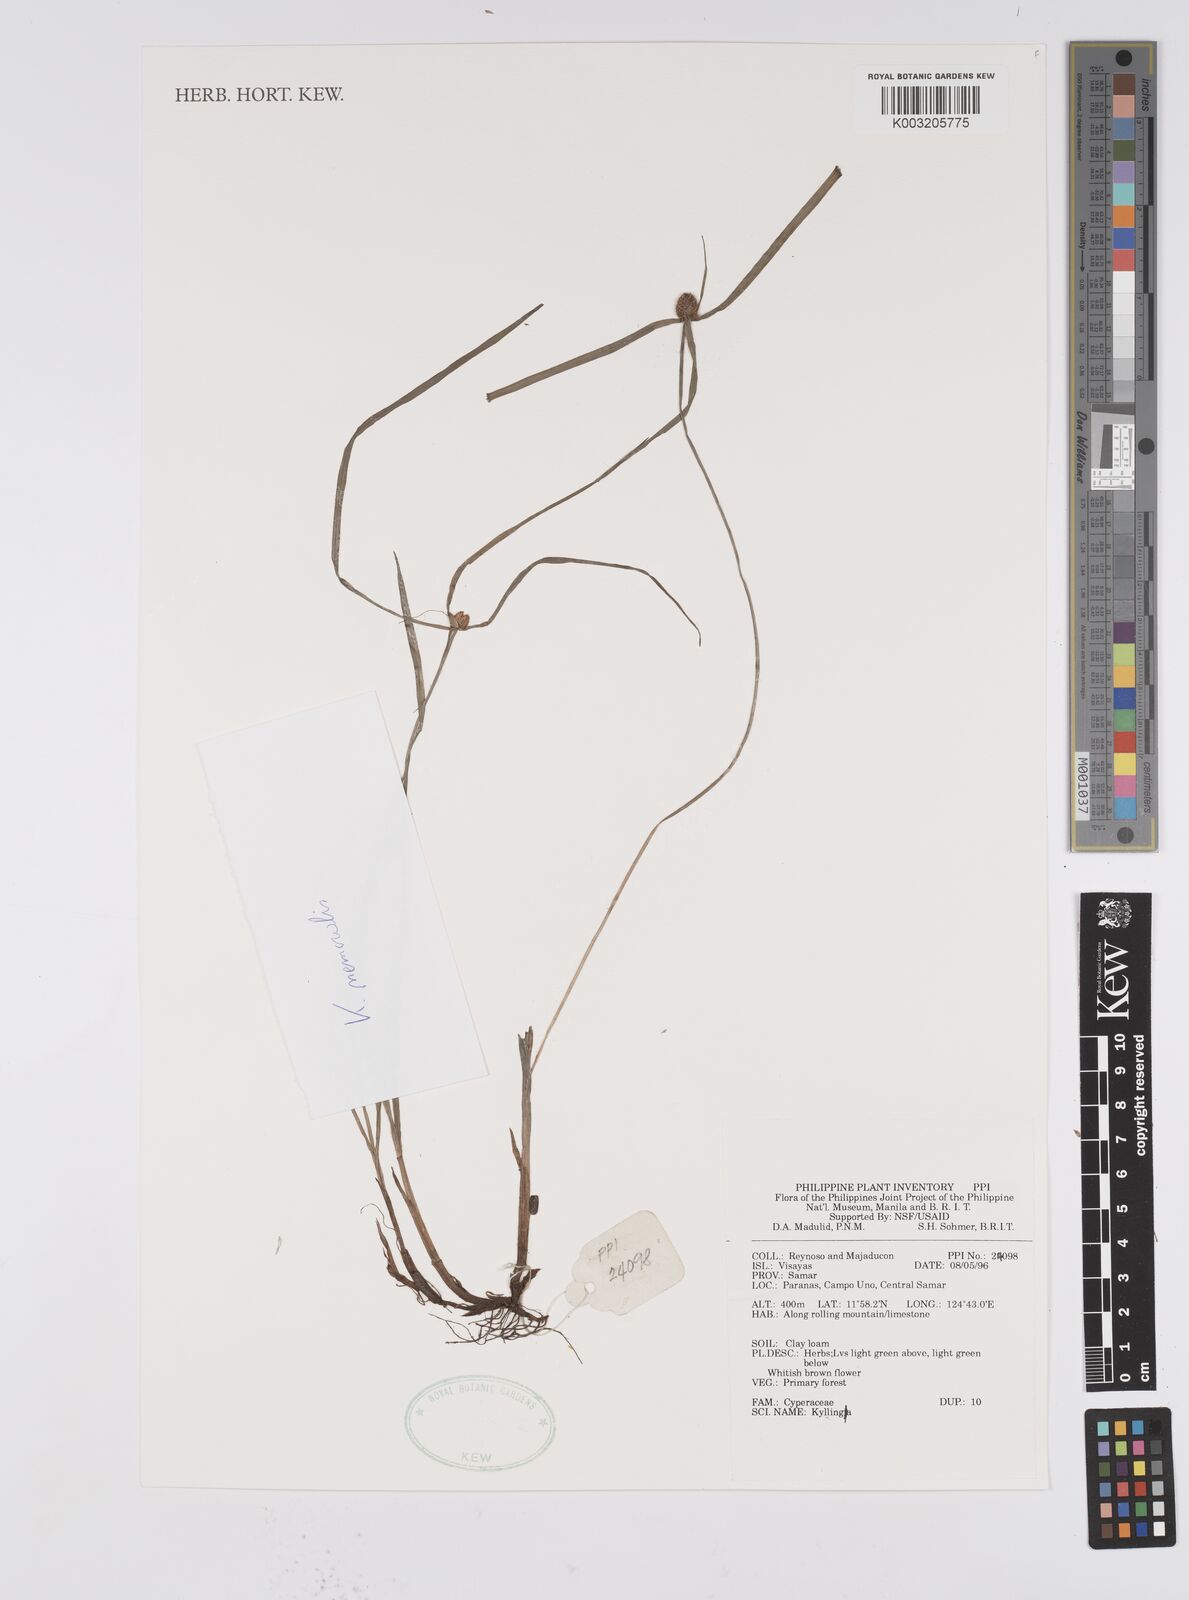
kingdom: Plantae
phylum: Tracheophyta
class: Liliopsida
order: Poales
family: Cyperaceae
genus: Cyperus
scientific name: Cyperus nemoralis
